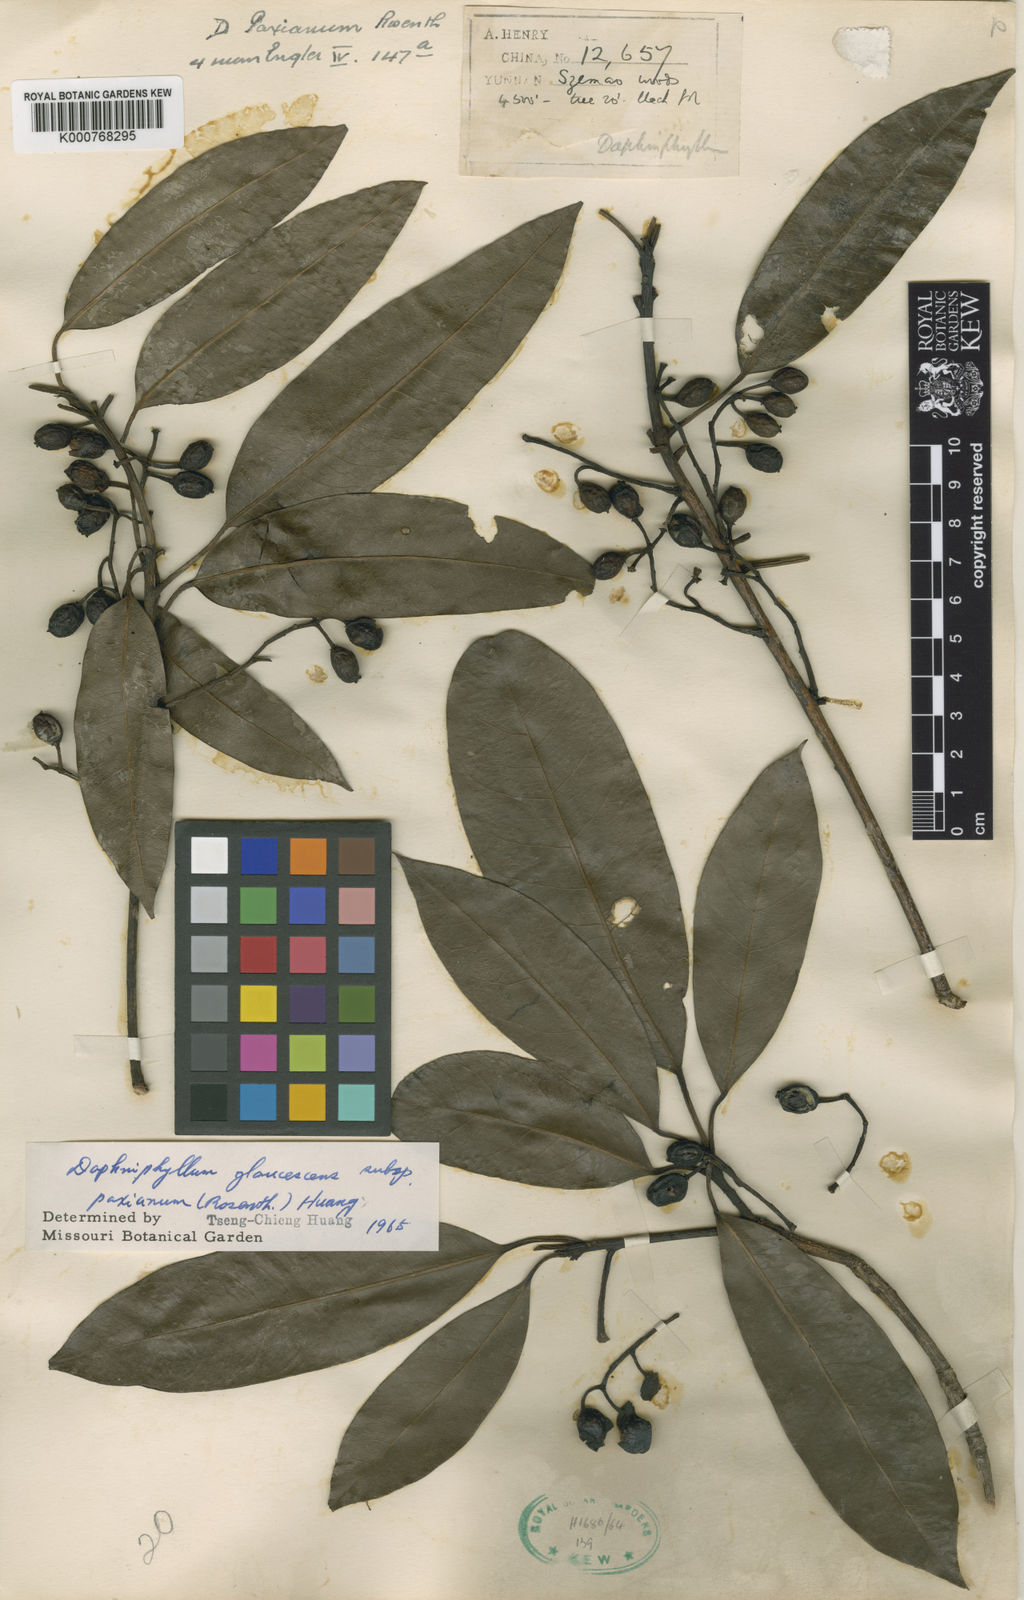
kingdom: Plantae
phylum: Tracheophyta
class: Magnoliopsida
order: Saxifragales
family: Daphniphyllaceae
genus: Daphniphyllum
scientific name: Daphniphyllum paxianum
